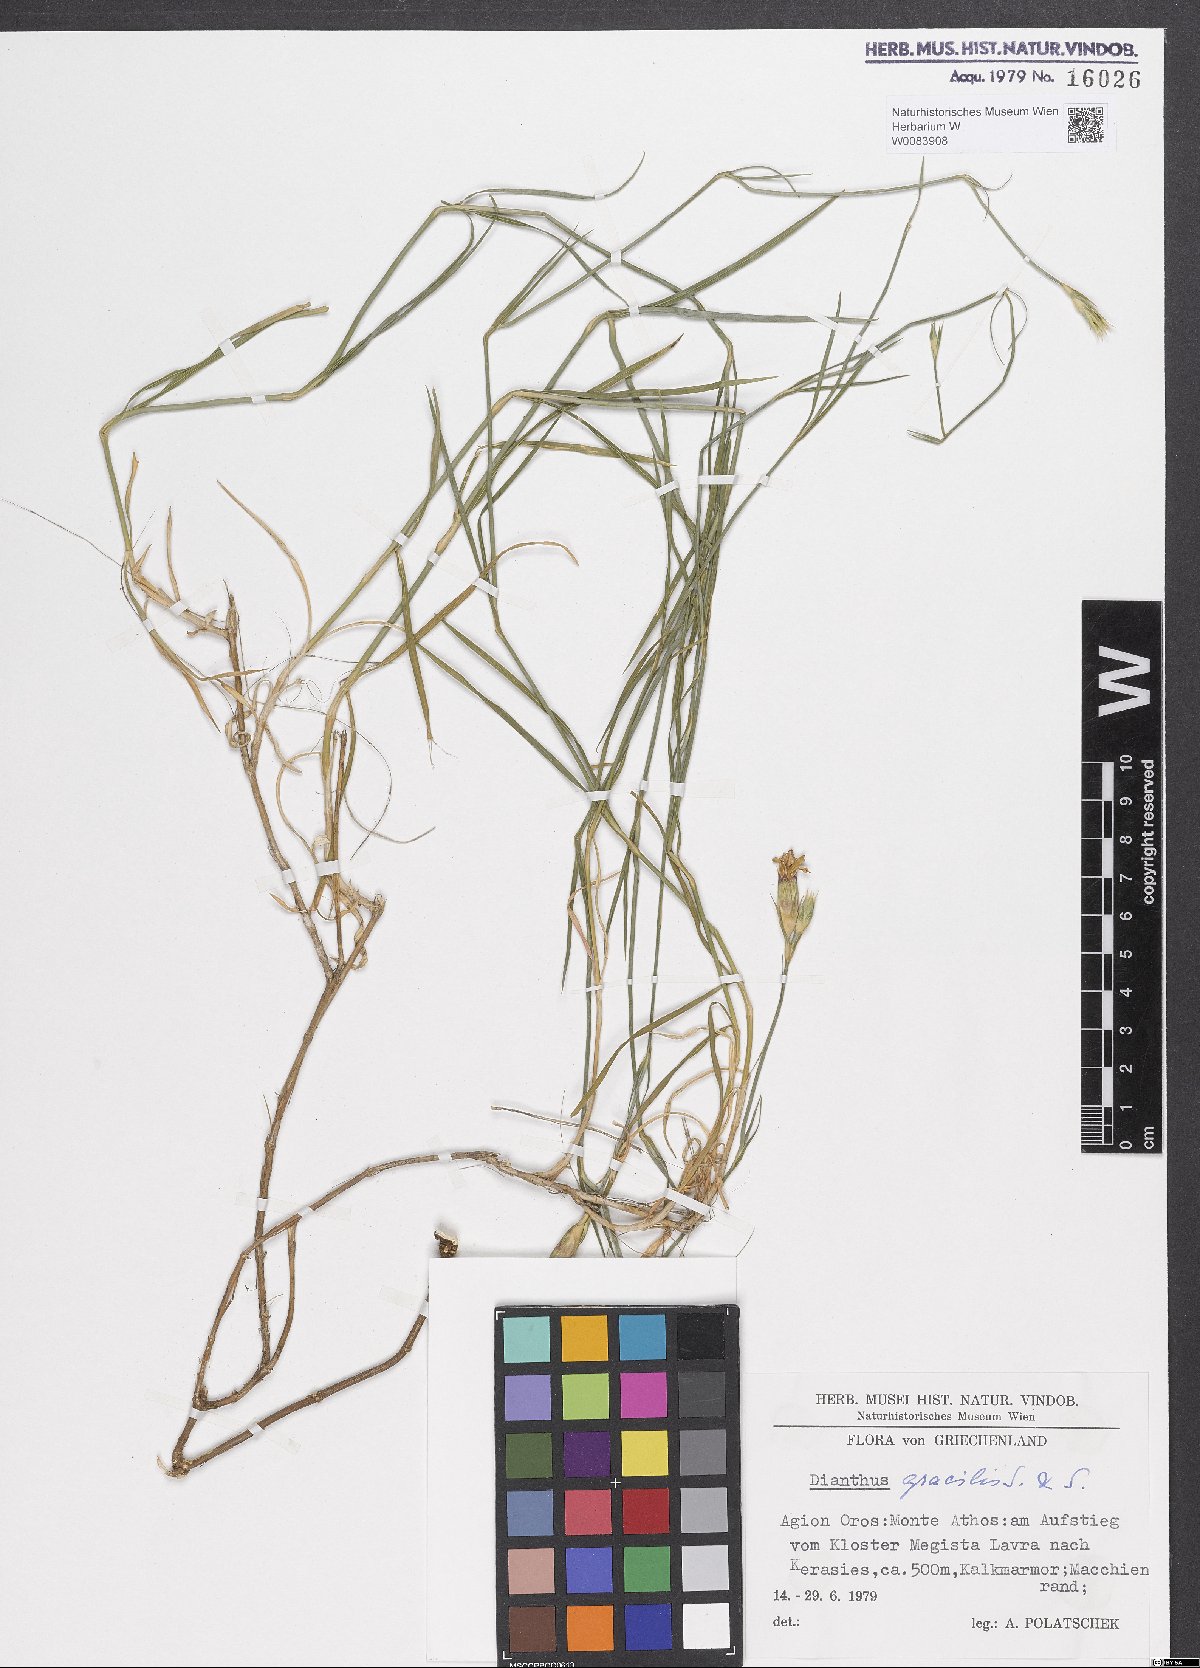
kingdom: Plantae
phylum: Tracheophyta
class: Magnoliopsida
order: Caryophyllales
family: Caryophyllaceae
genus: Dianthus
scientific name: Dianthus gracilis
